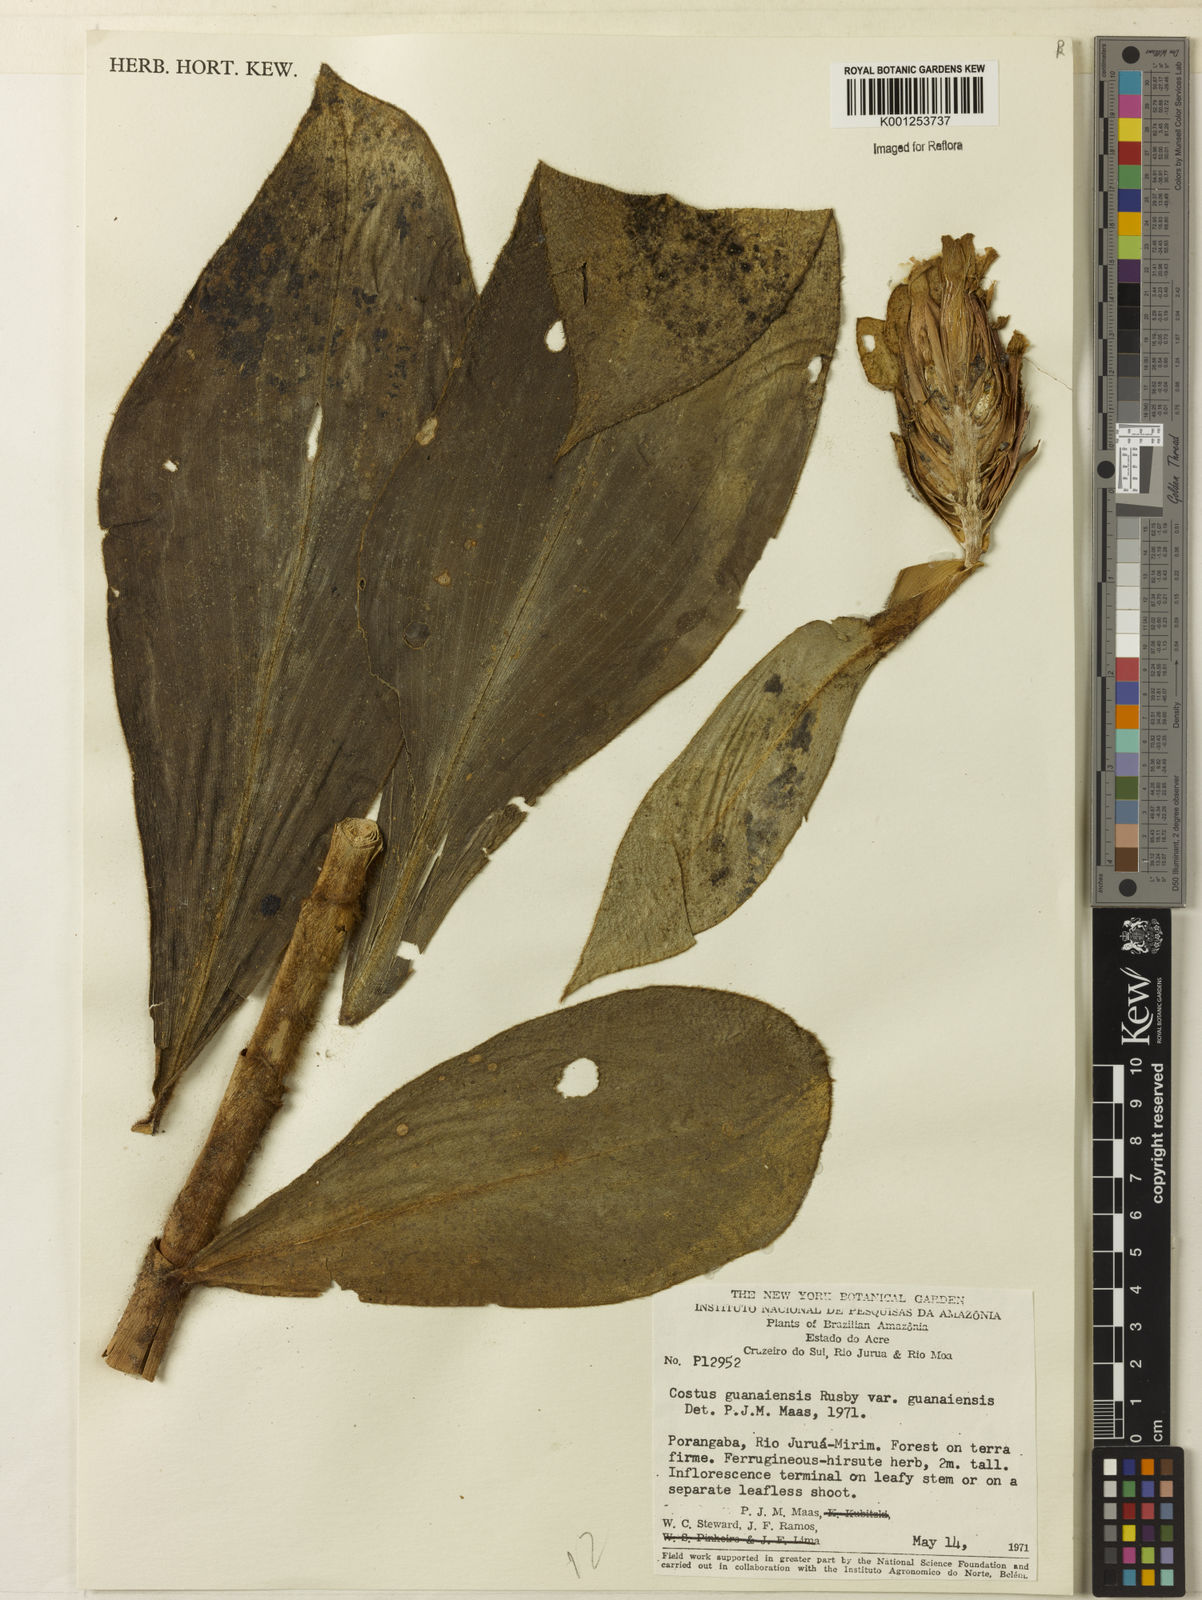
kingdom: Plantae
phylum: Tracheophyta
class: Liliopsida
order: Zingiberales
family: Costaceae
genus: Costus
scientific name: Costus guanaiensis
